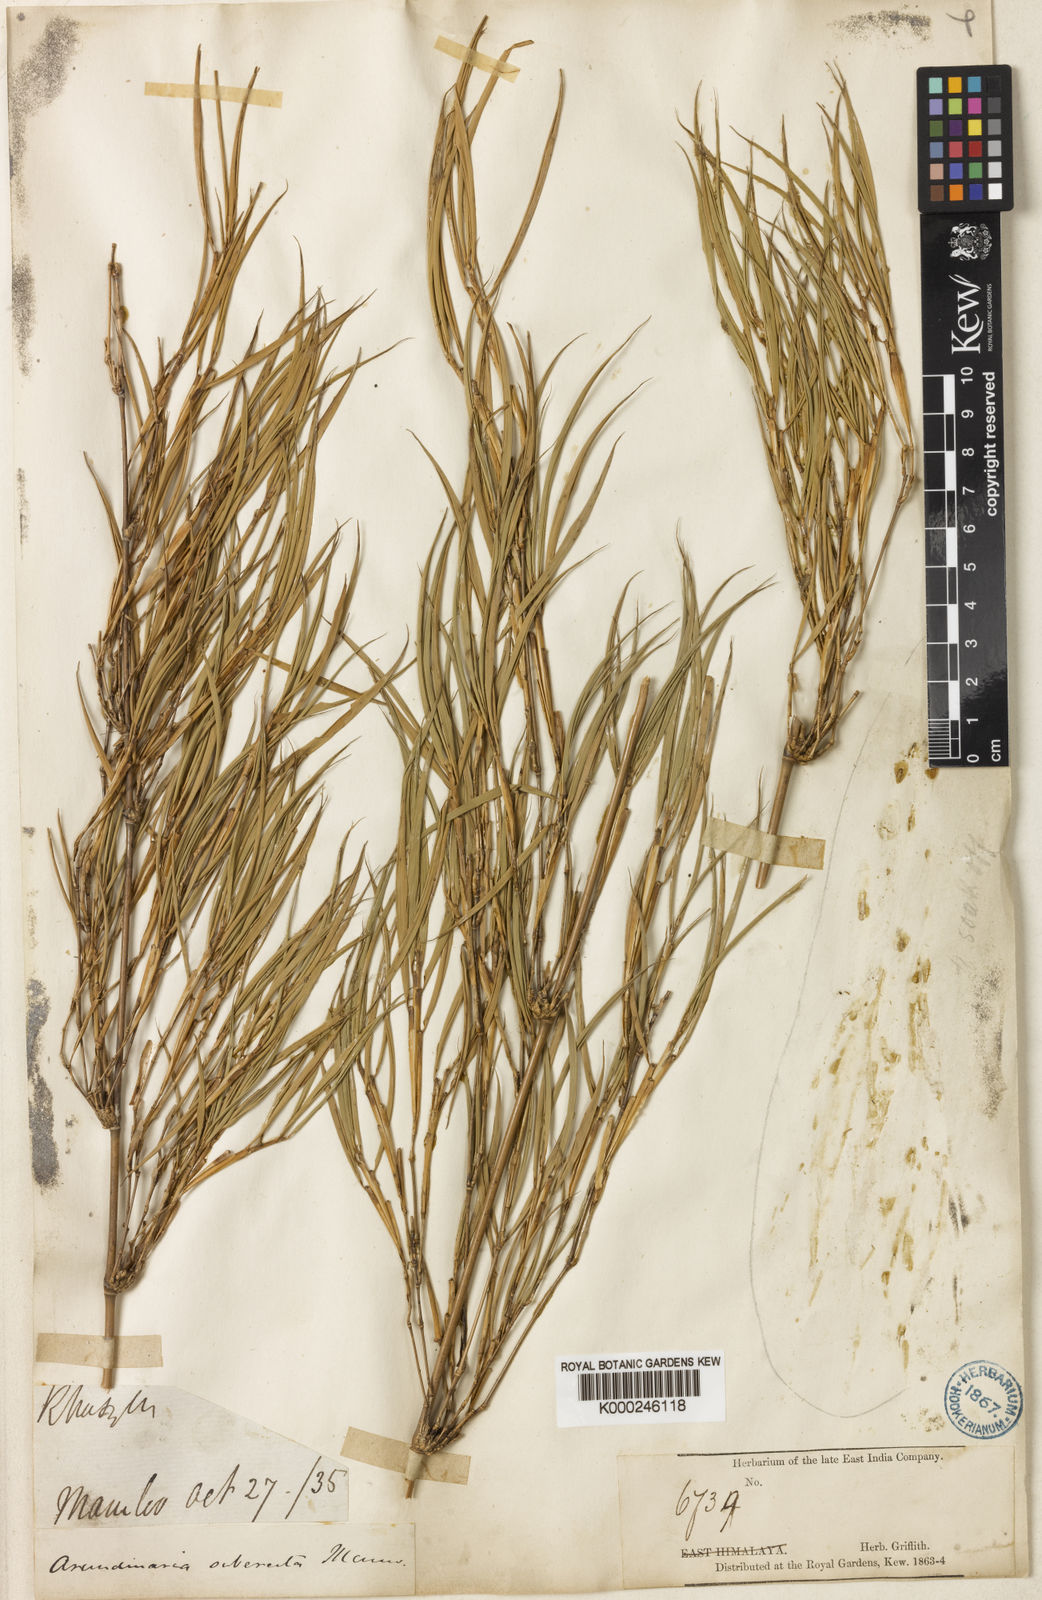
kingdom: Plantae
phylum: Tracheophyta
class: Liliopsida
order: Poales
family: Poaceae
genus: Drepanostachyum
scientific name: Drepanostachyum khasianum
